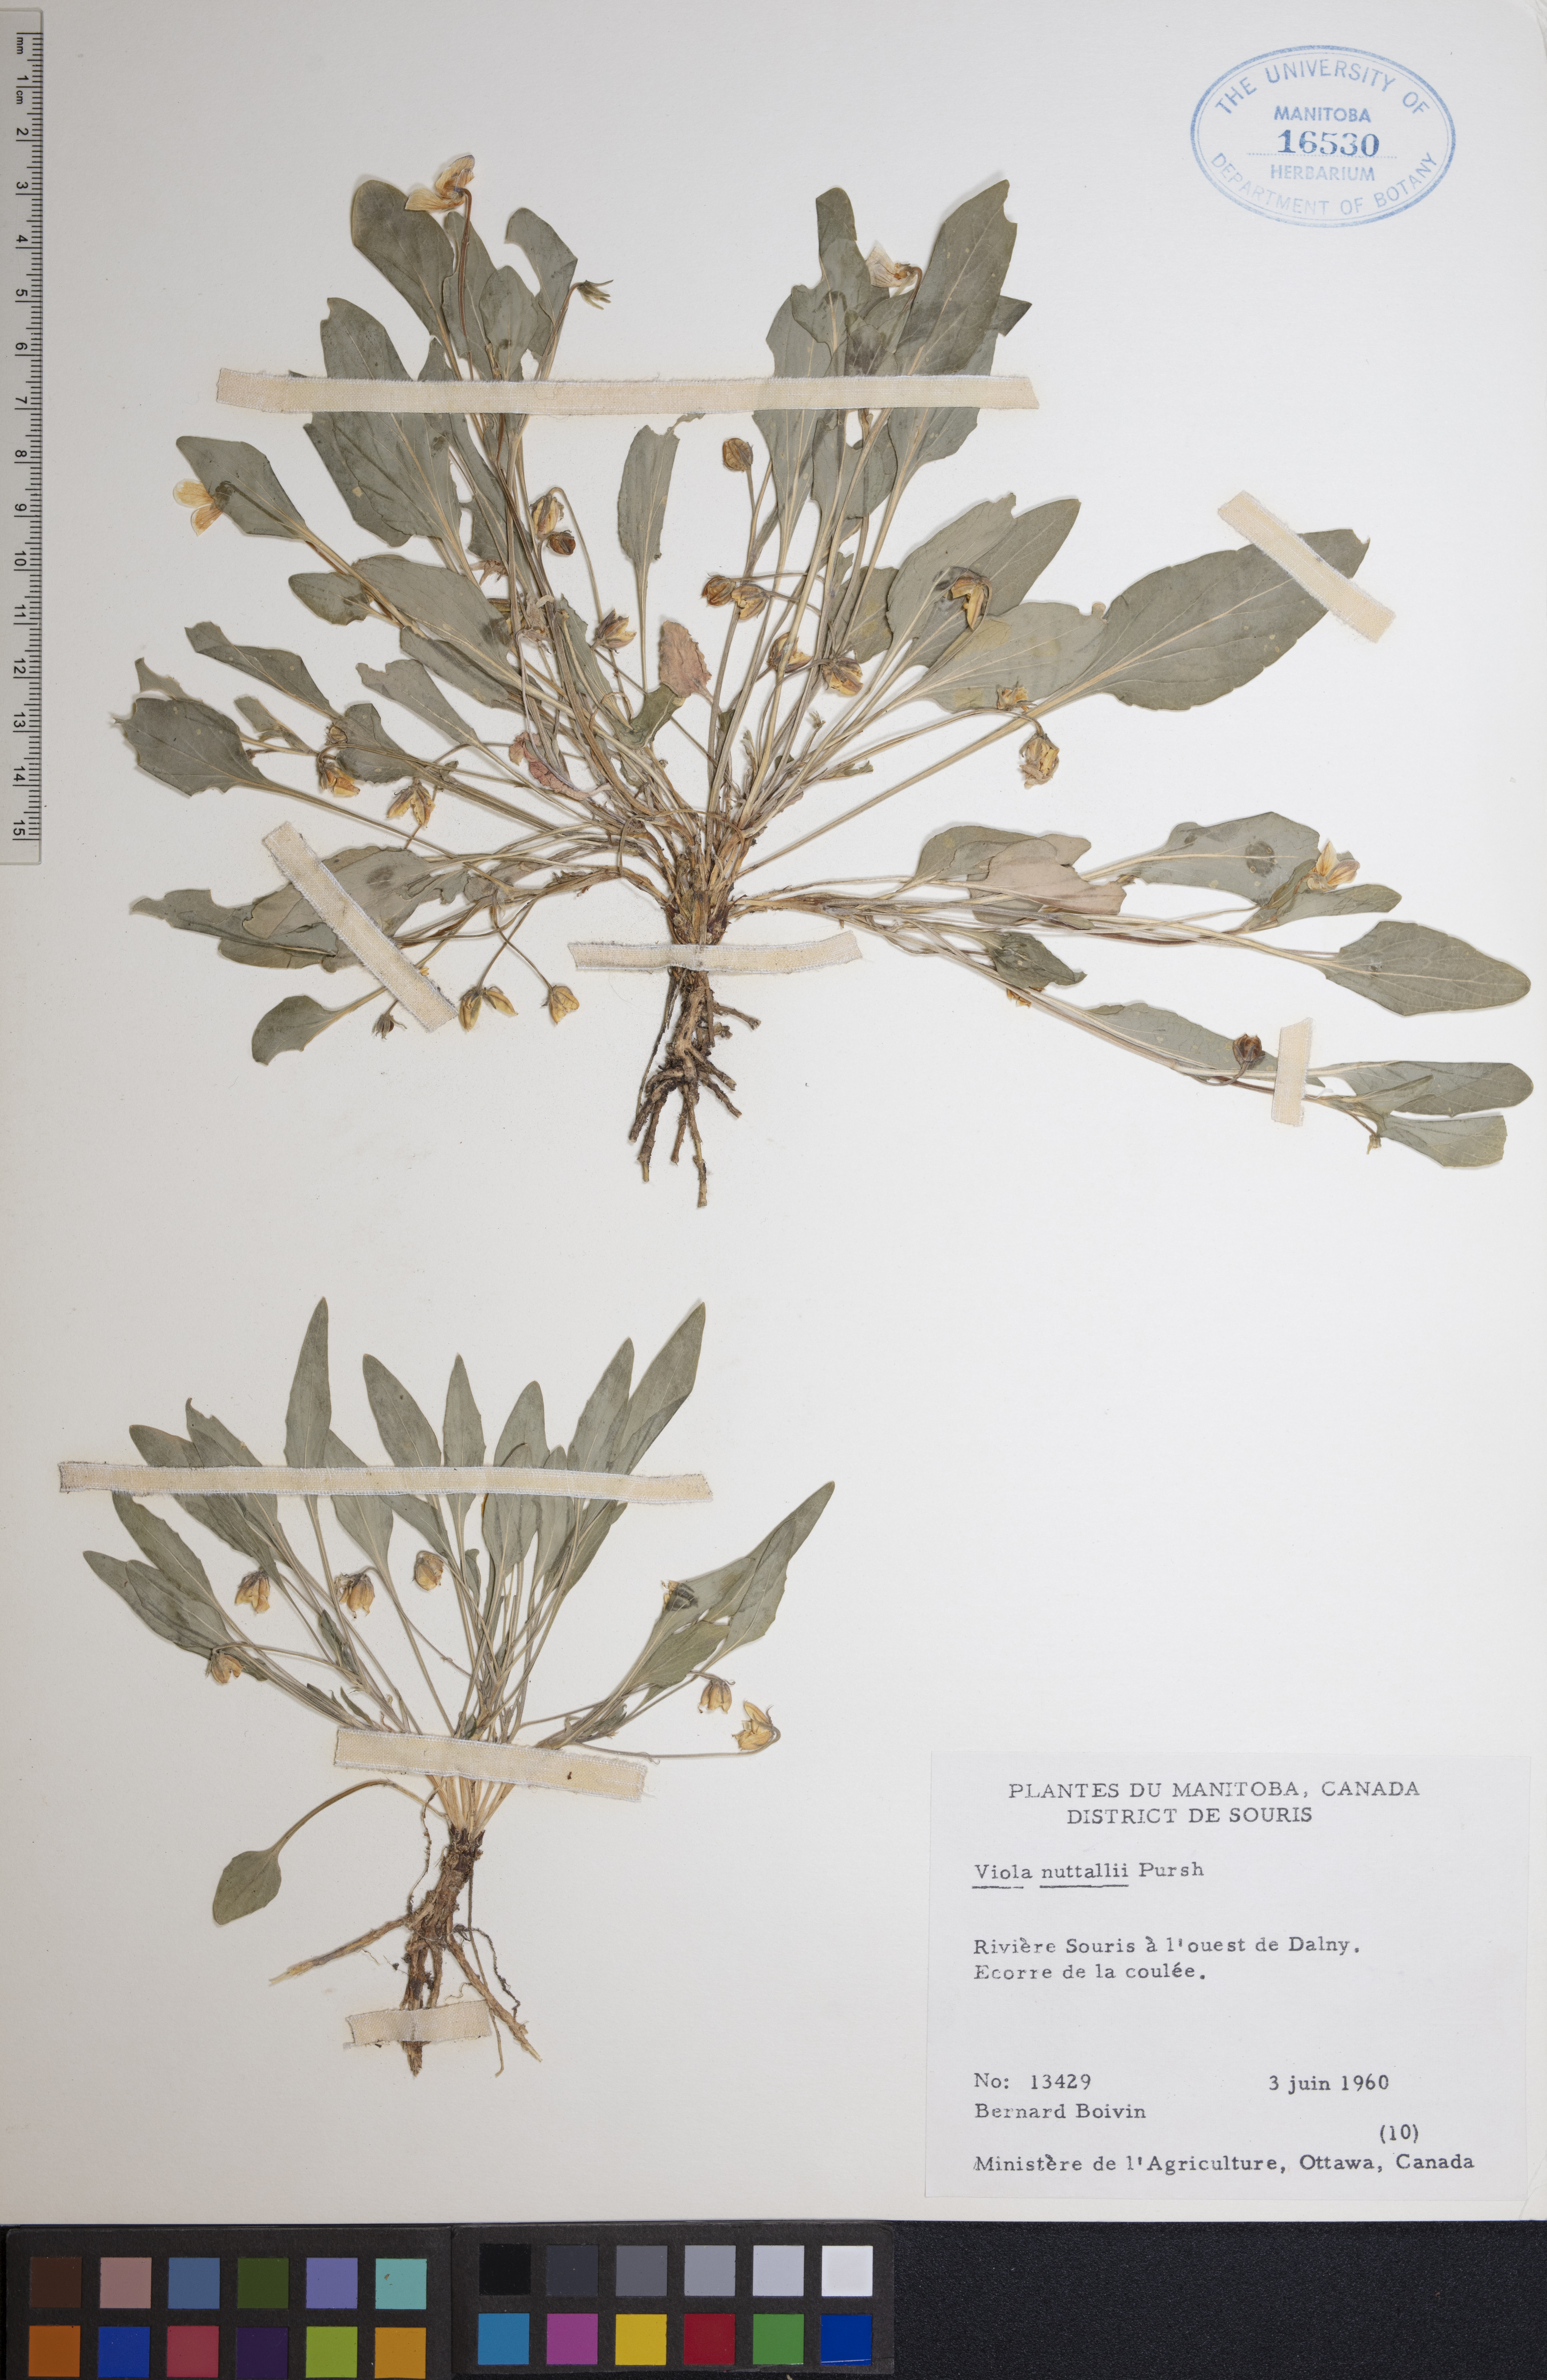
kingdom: Plantae
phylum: Tracheophyta
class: Magnoliopsida
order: Malpighiales
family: Violaceae
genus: Viola
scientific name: Viola nuttallii
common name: Yellow prairie violet
